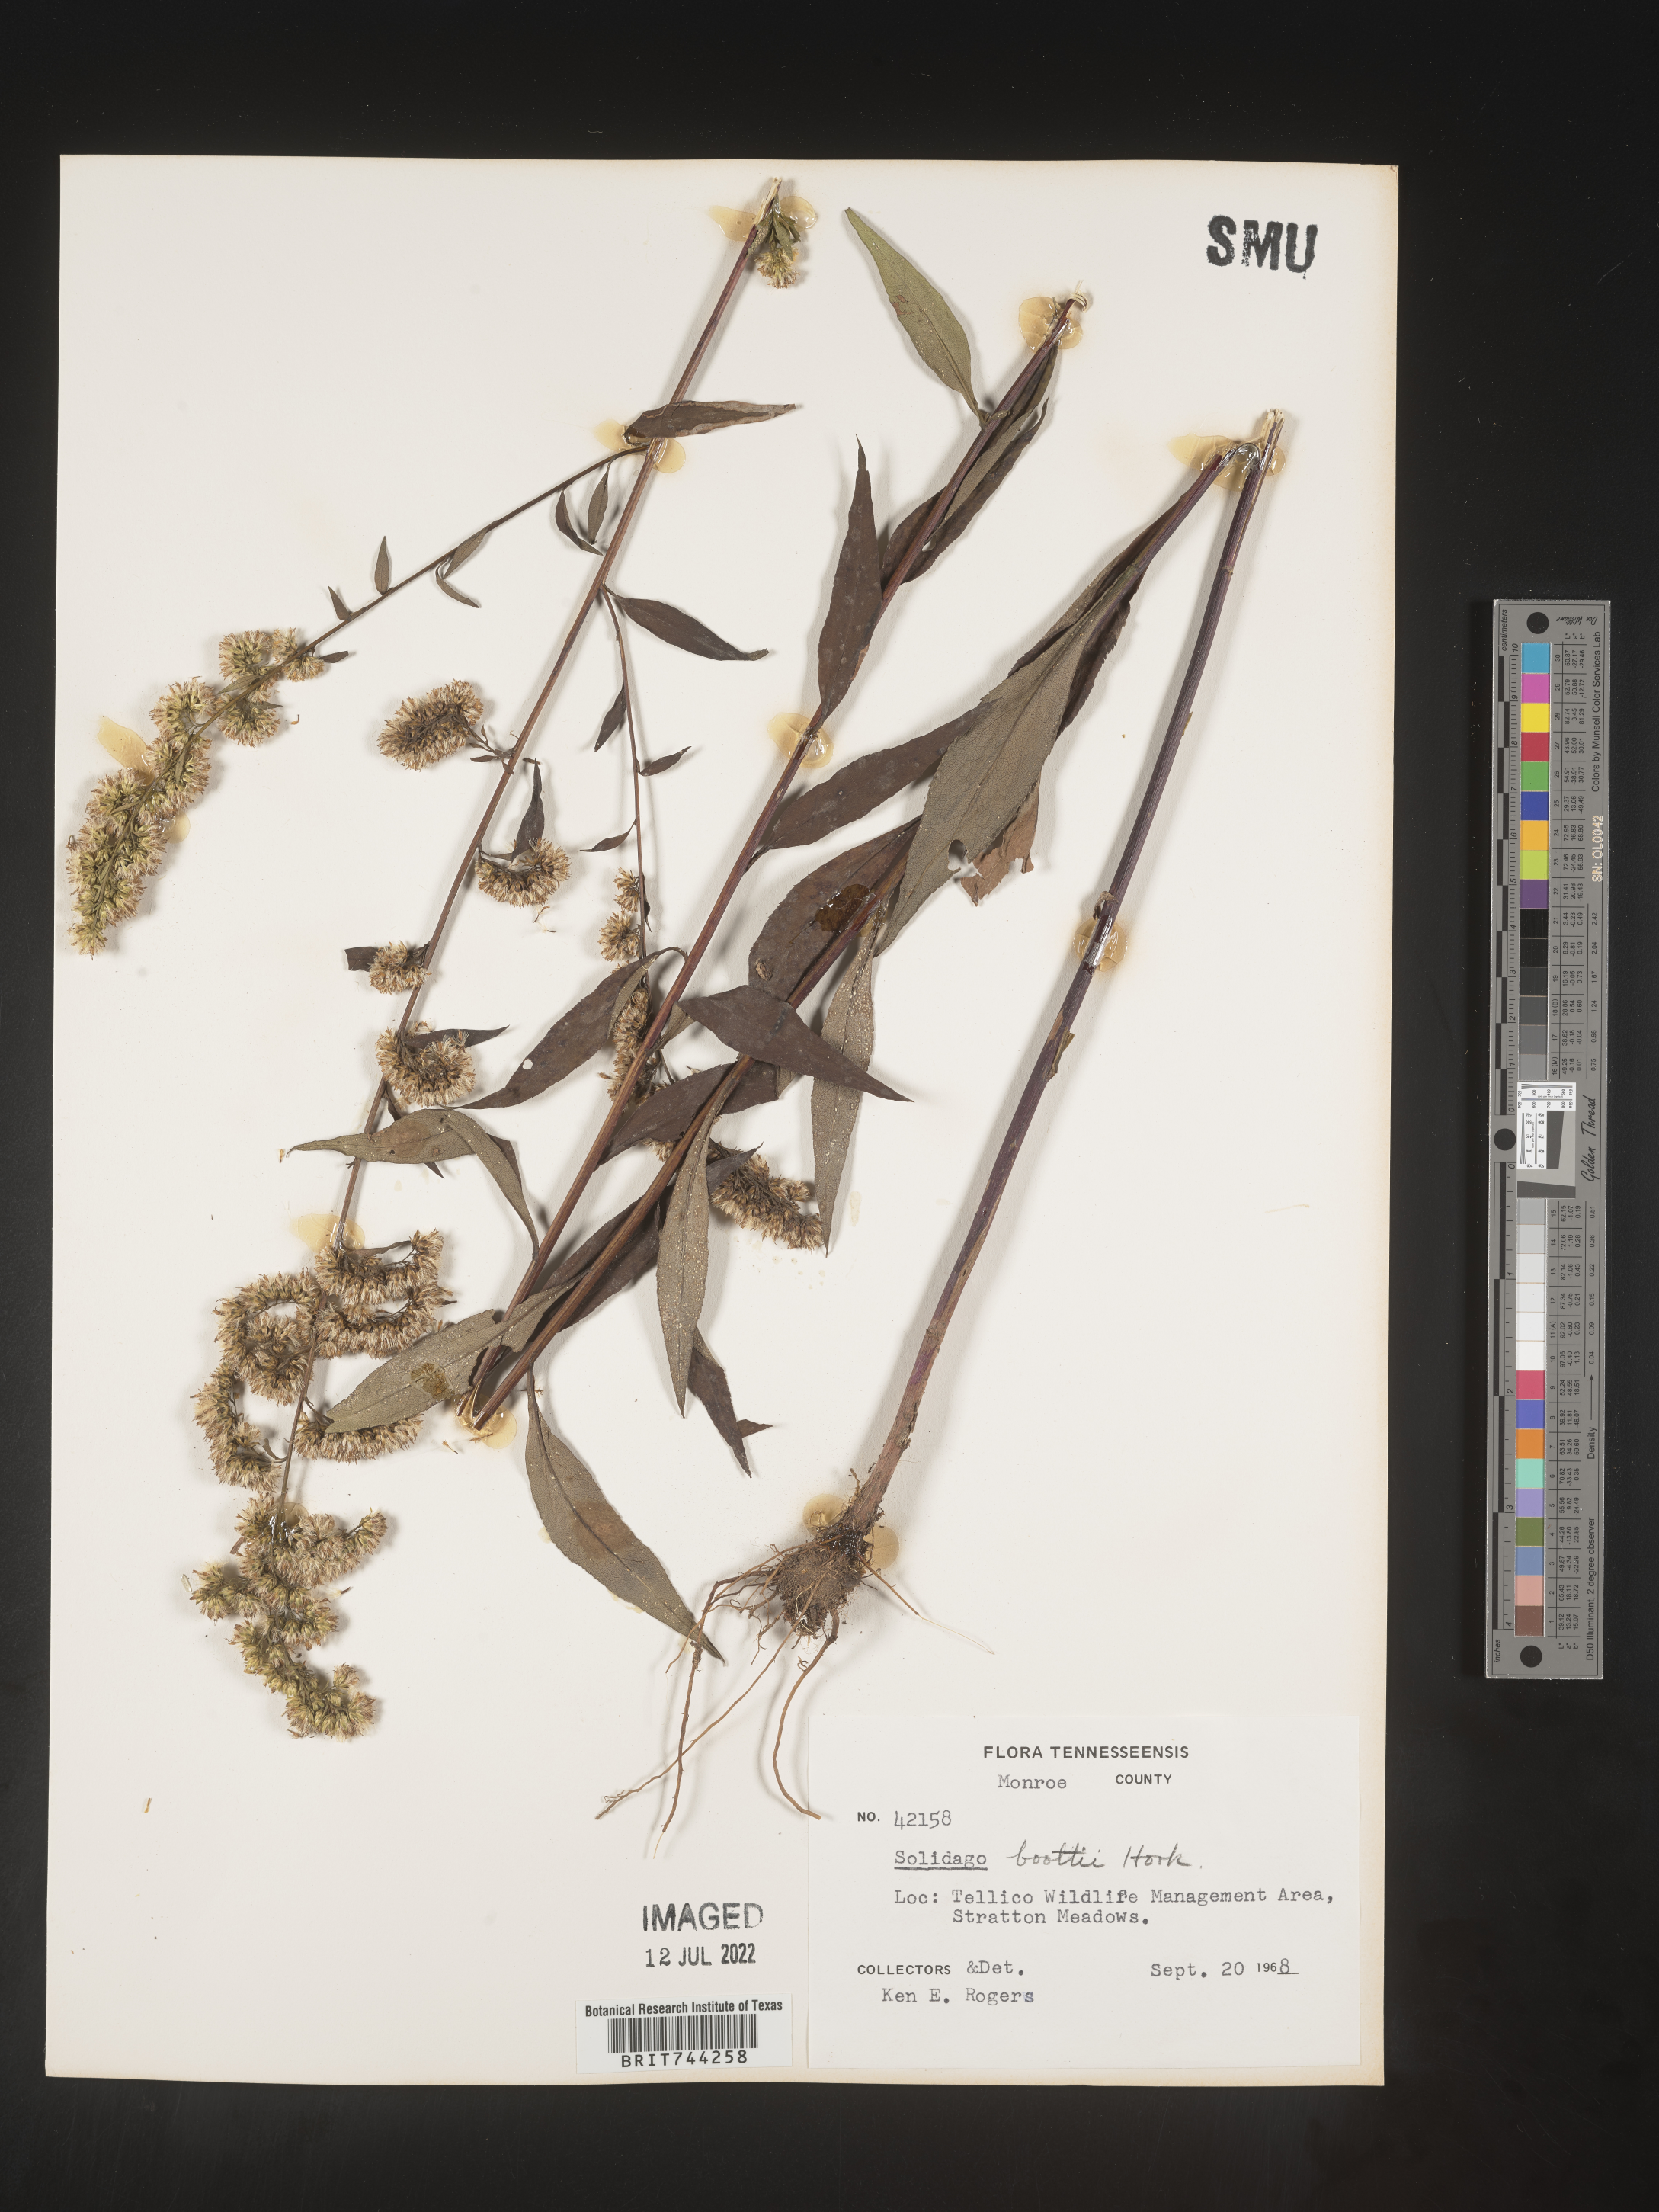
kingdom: Plantae
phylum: Tracheophyta
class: Magnoliopsida
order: Asterales
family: Asteraceae
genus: Solidago
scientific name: Solidago vaseyi
